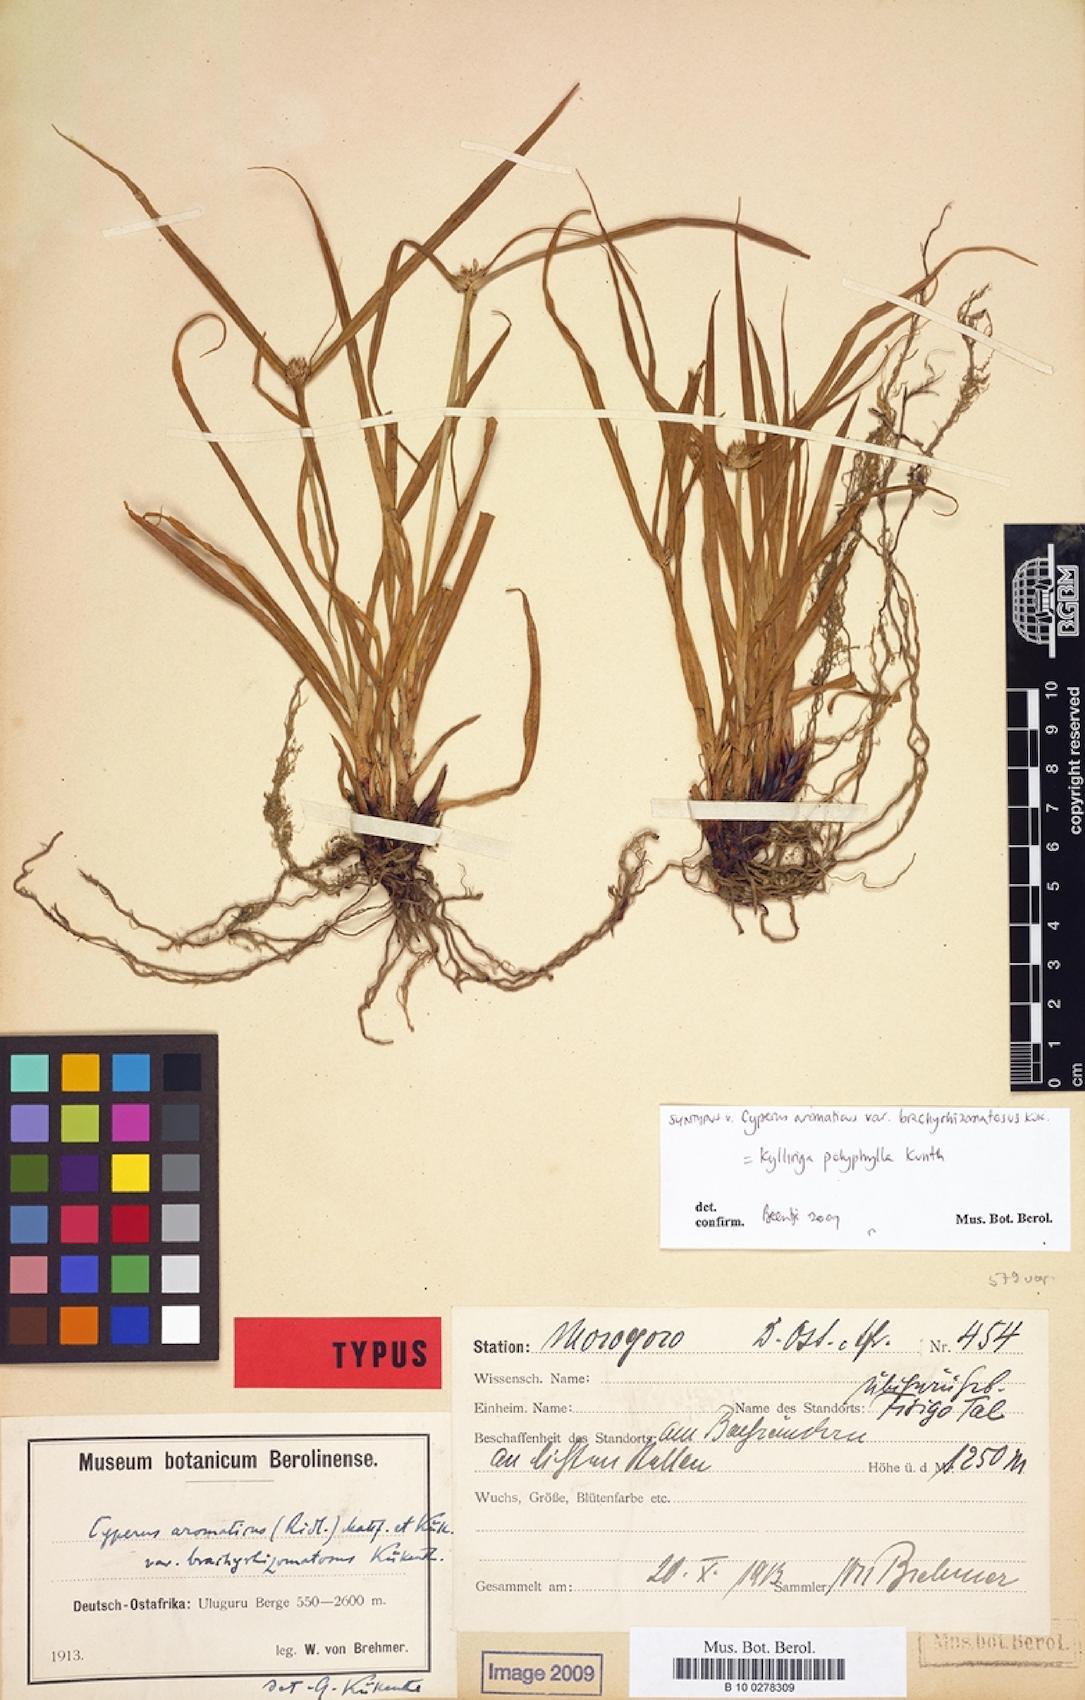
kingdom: Plantae
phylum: Tracheophyta
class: Liliopsida
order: Poales
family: Cyperaceae
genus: Cyperus
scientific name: Cyperus aromaticus
